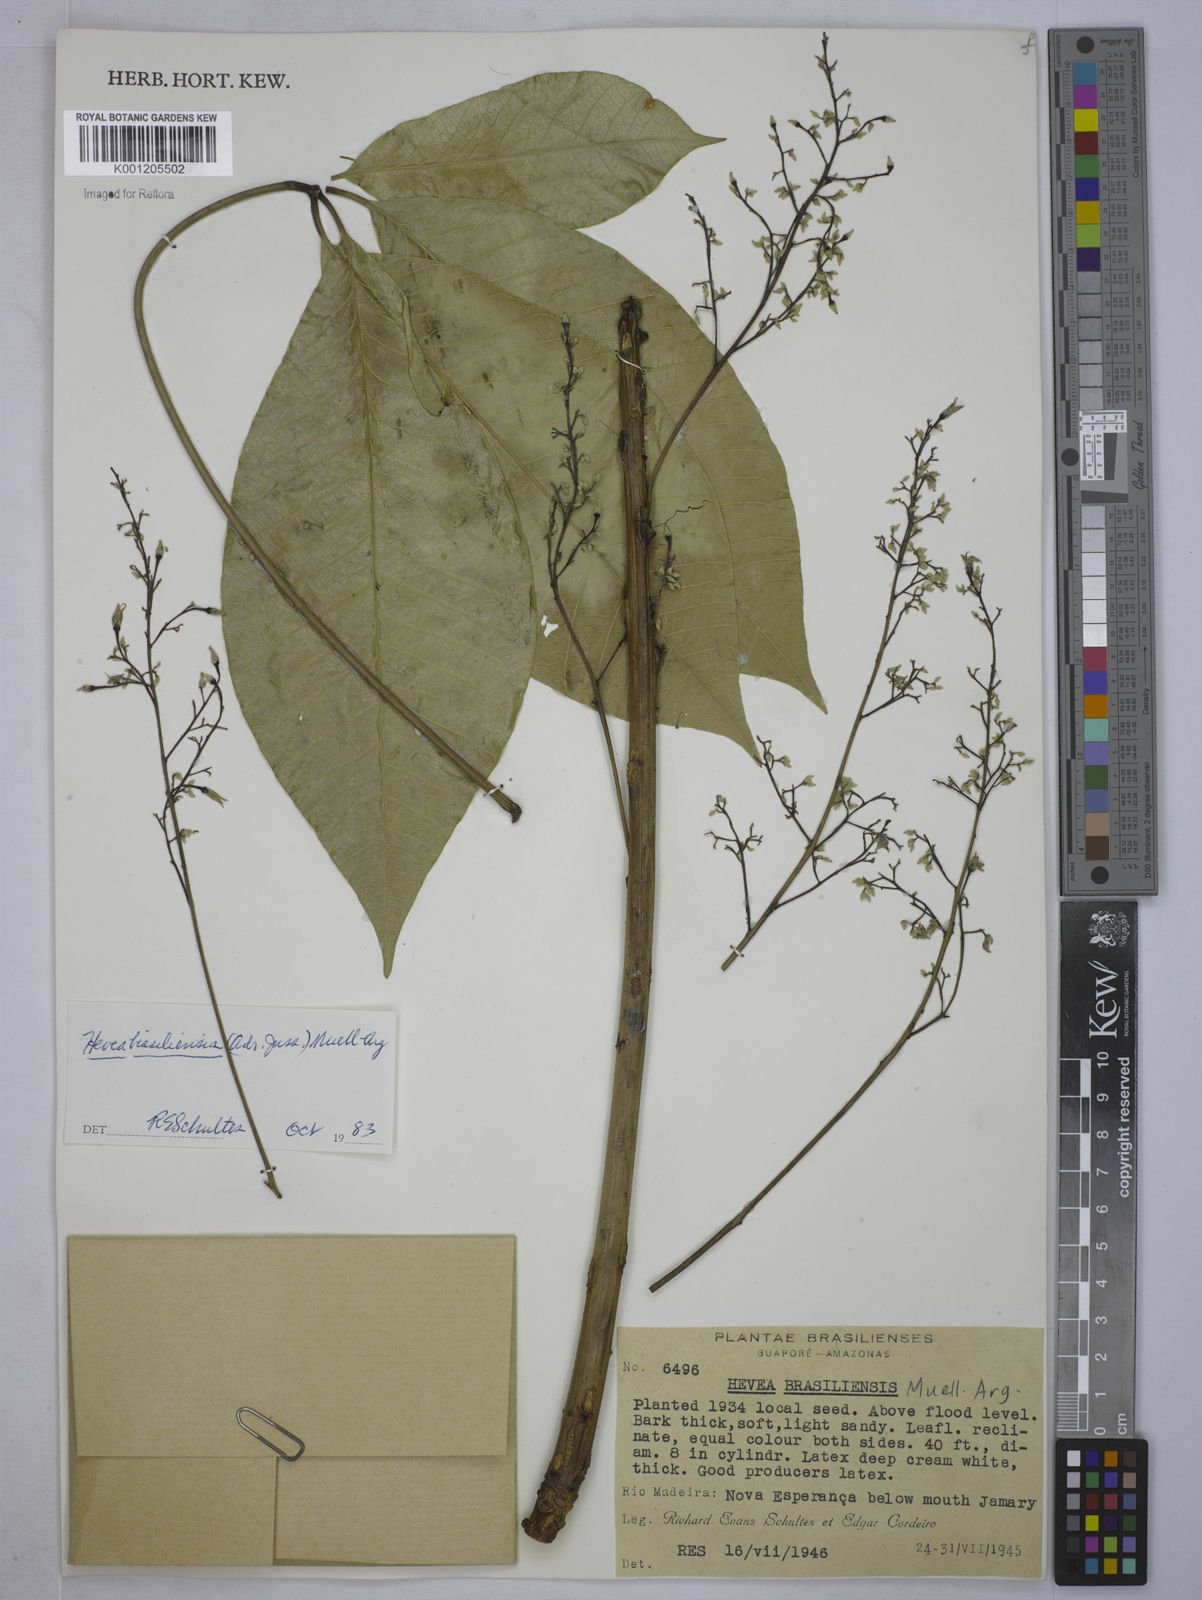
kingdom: Plantae
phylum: Tracheophyta
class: Magnoliopsida
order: Malpighiales
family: Euphorbiaceae
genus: Hevea
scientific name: Hevea
